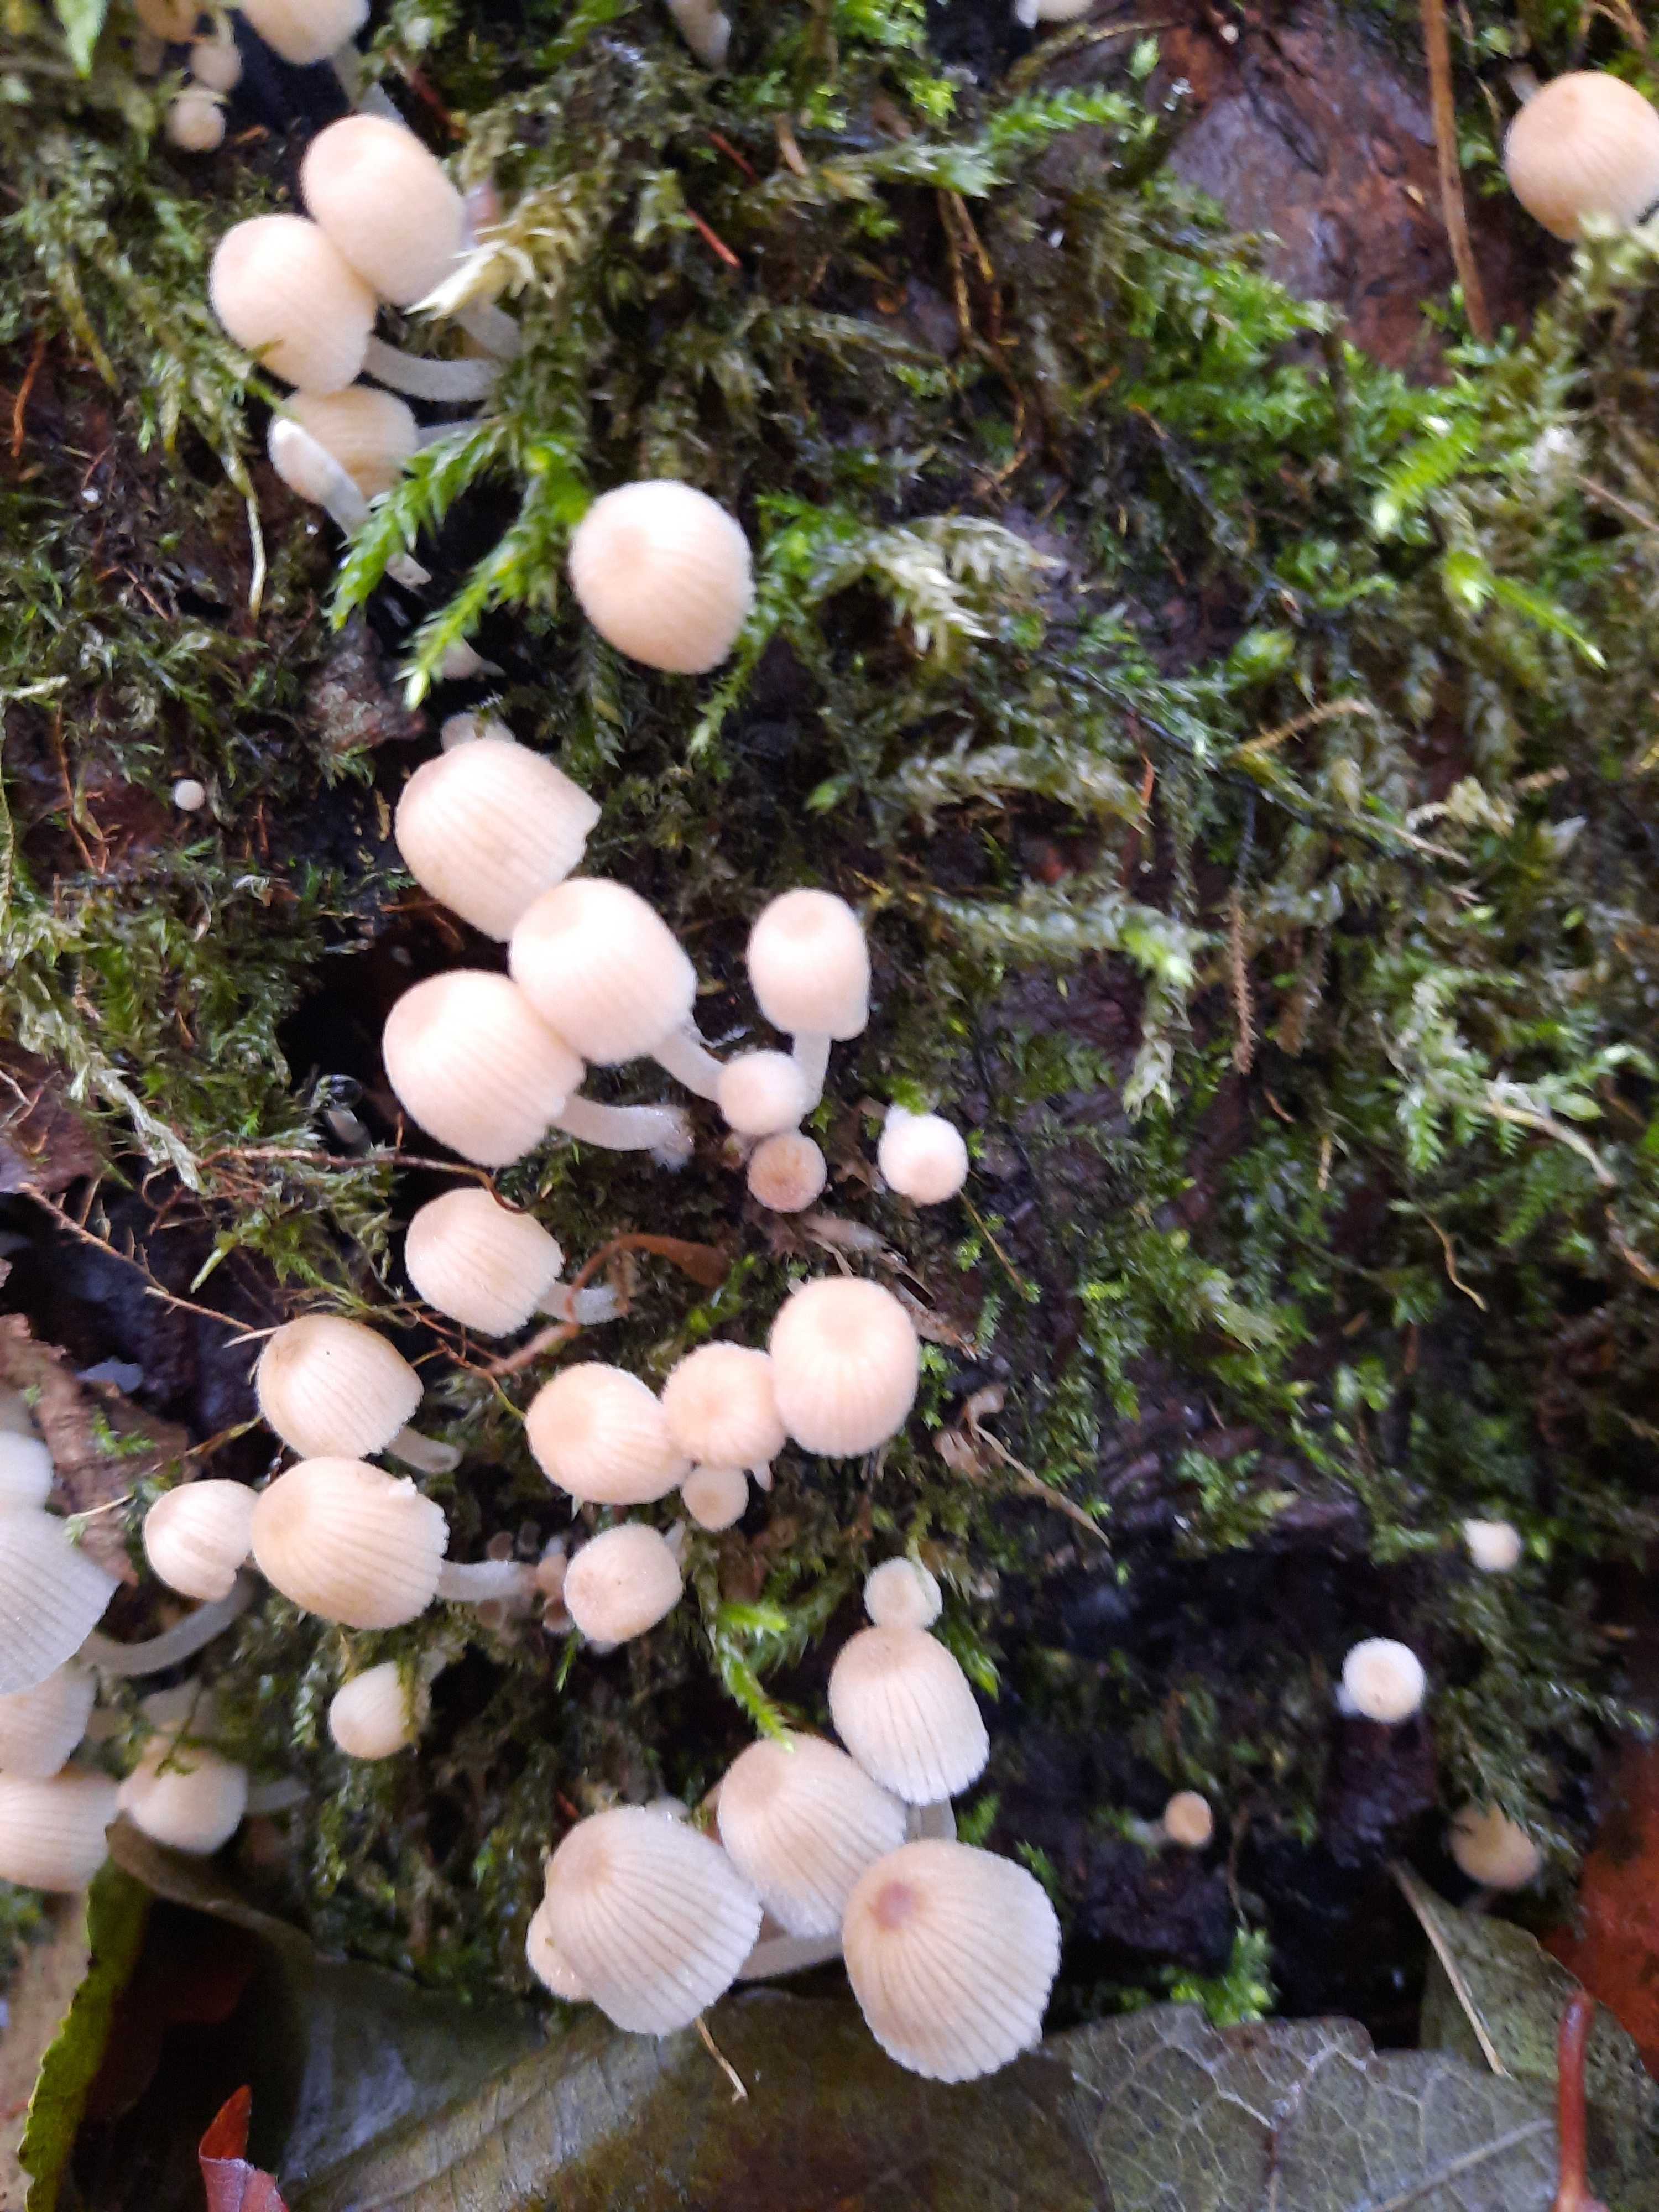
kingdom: Fungi
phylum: Basidiomycota
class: Agaricomycetes
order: Agaricales
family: Psathyrellaceae
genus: Coprinellus
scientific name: Coprinellus disseminatus
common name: bredsået blækhat
